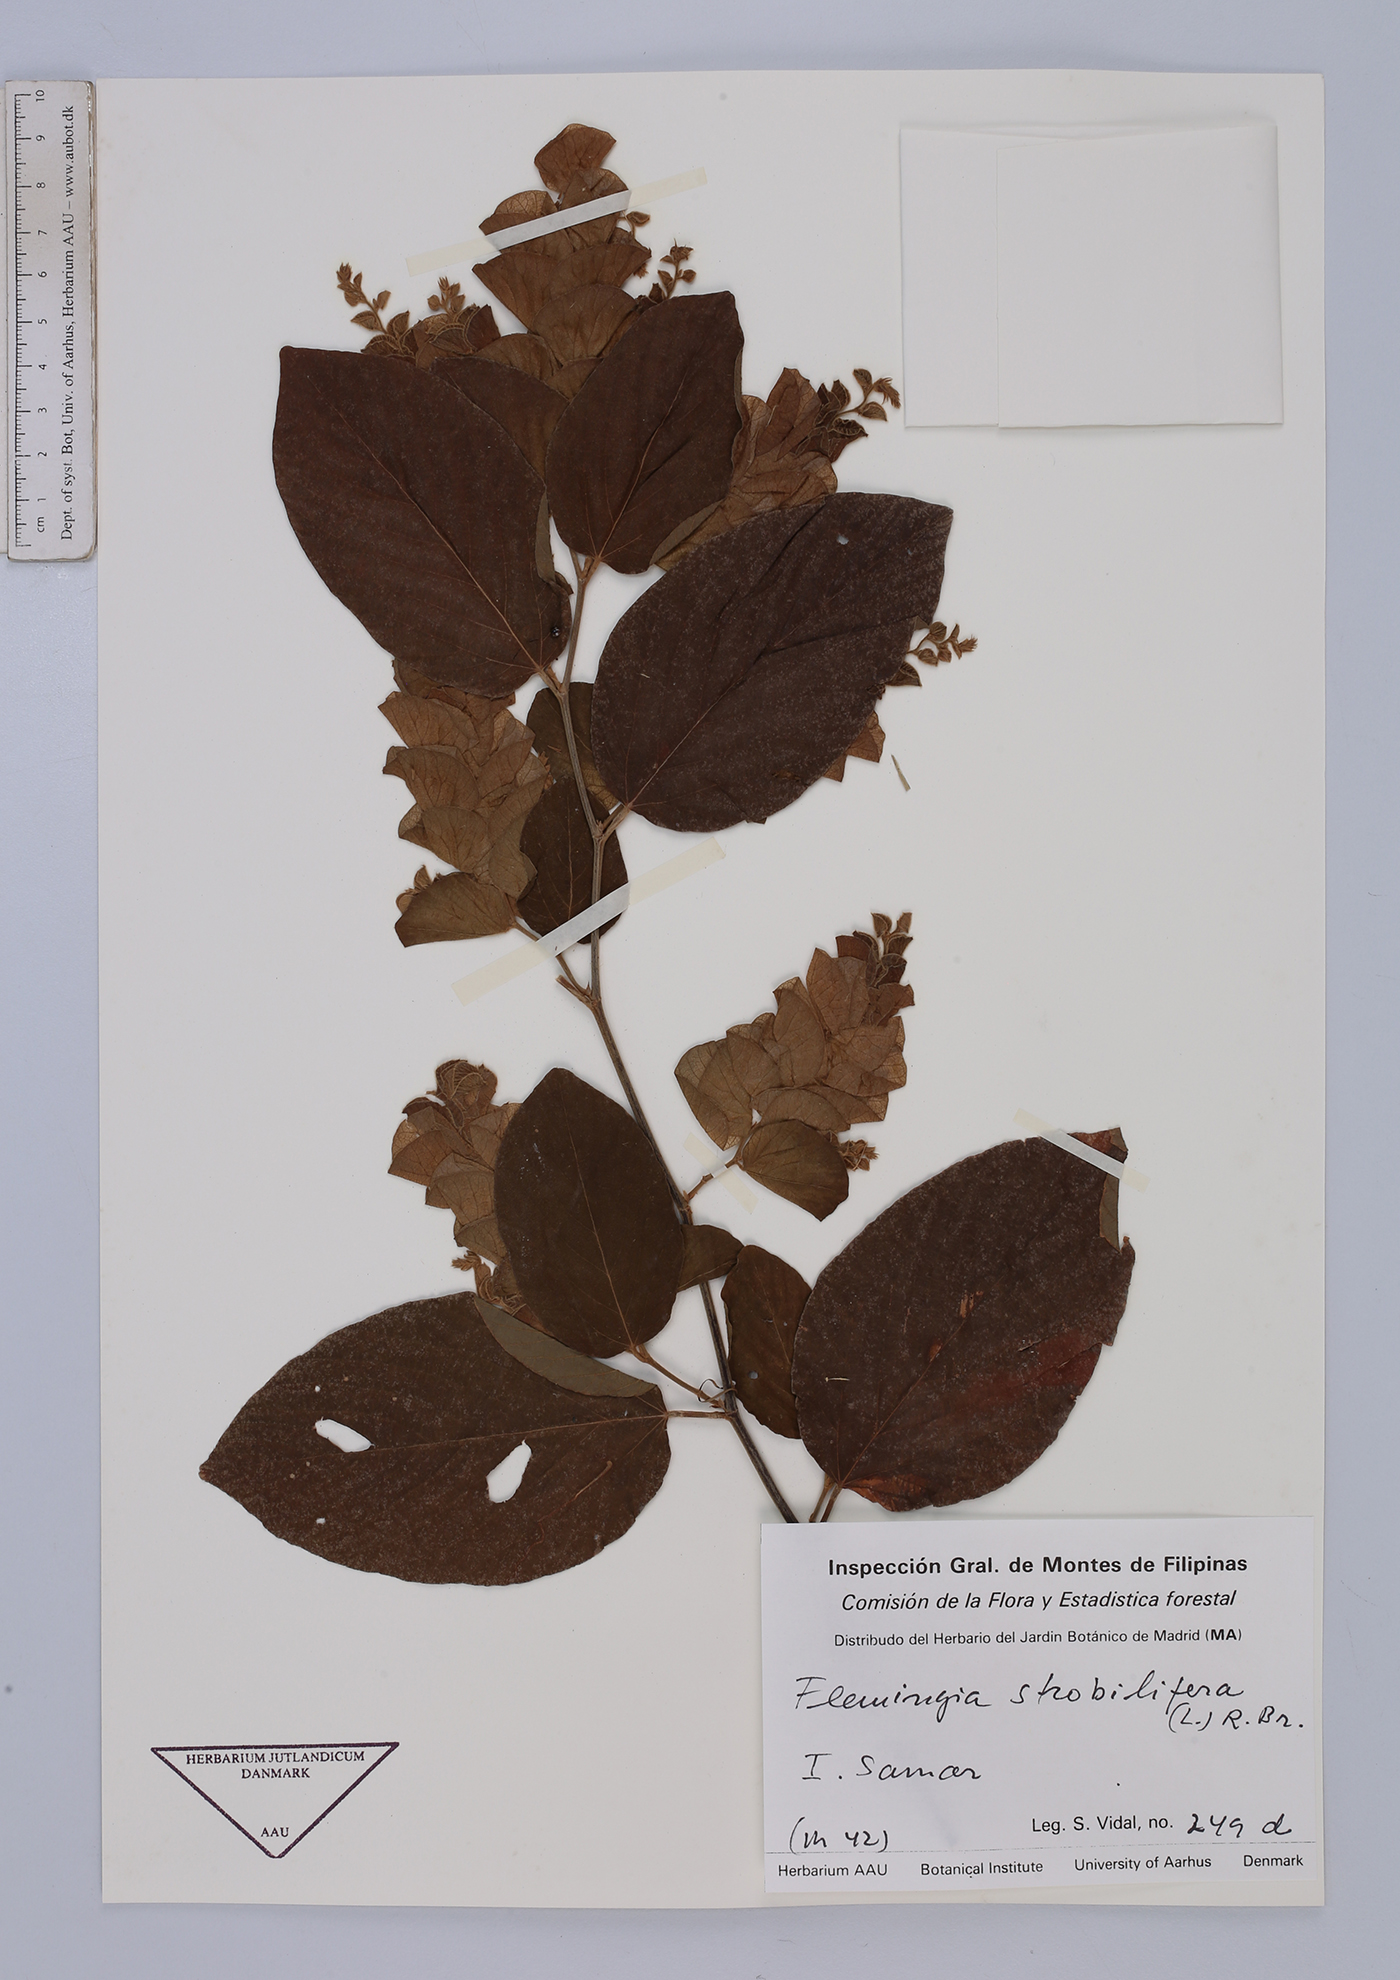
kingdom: Plantae
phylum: Tracheophyta
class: Magnoliopsida
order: Fabales
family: Fabaceae
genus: Flemingia
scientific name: Flemingia strobilifera
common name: Wild hops
